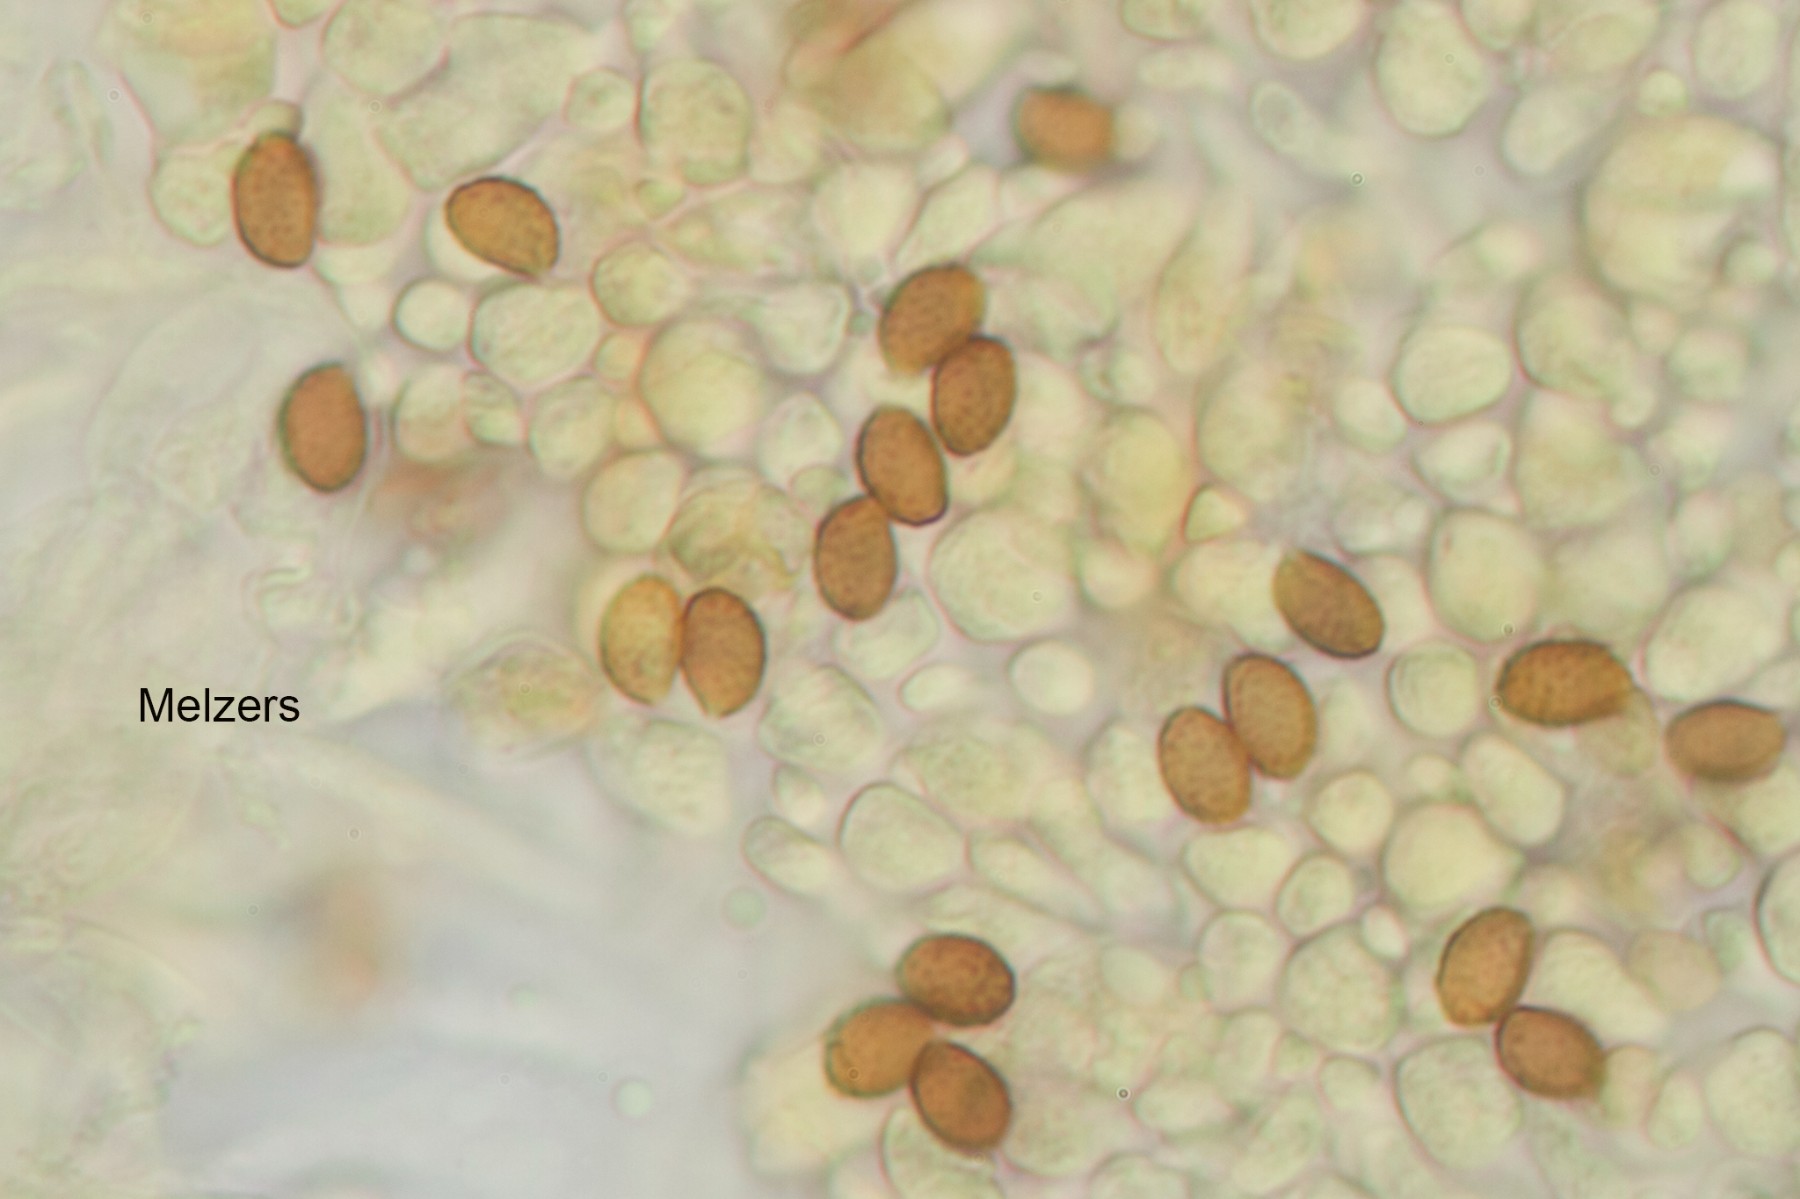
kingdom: Fungi
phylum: Basidiomycota
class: Agaricomycetes
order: Agaricales
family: Cortinariaceae
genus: Cortinarius
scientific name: Cortinarius neofallax
